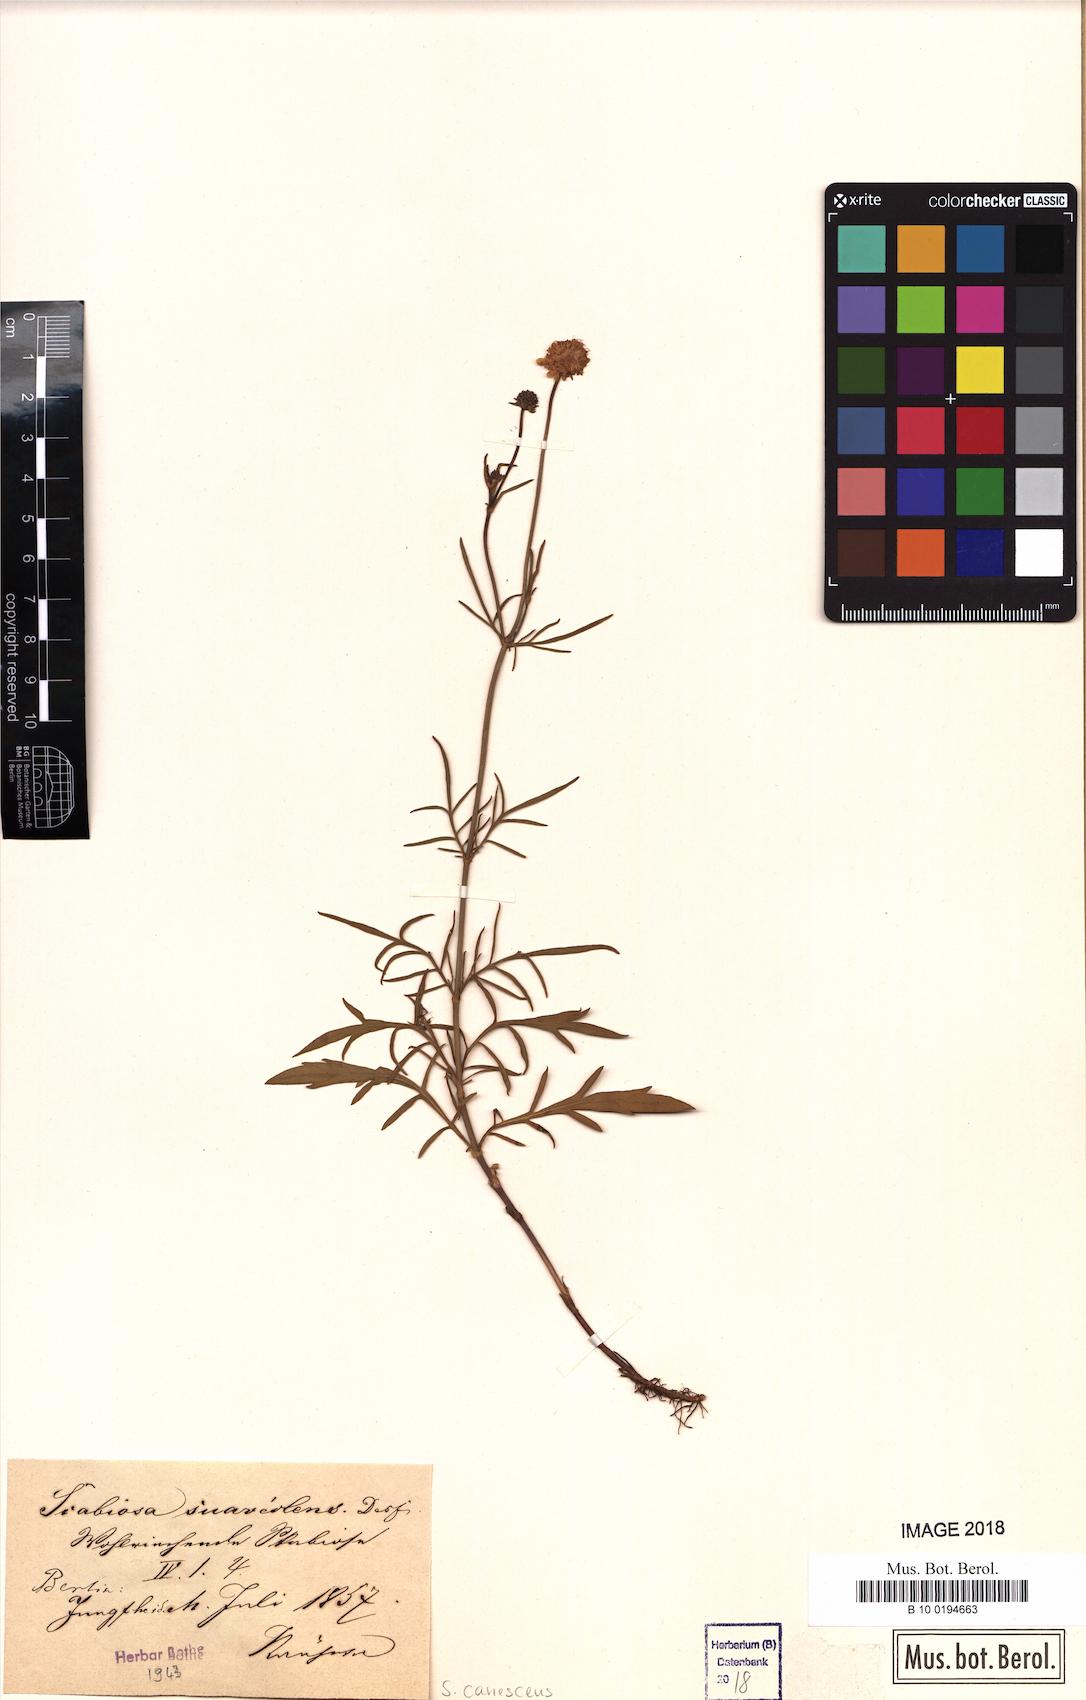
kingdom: Plantae
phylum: Tracheophyta
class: Magnoliopsida
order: Dipsacales
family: Caprifoliaceae
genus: Scabiosa
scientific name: Scabiosa canescens
